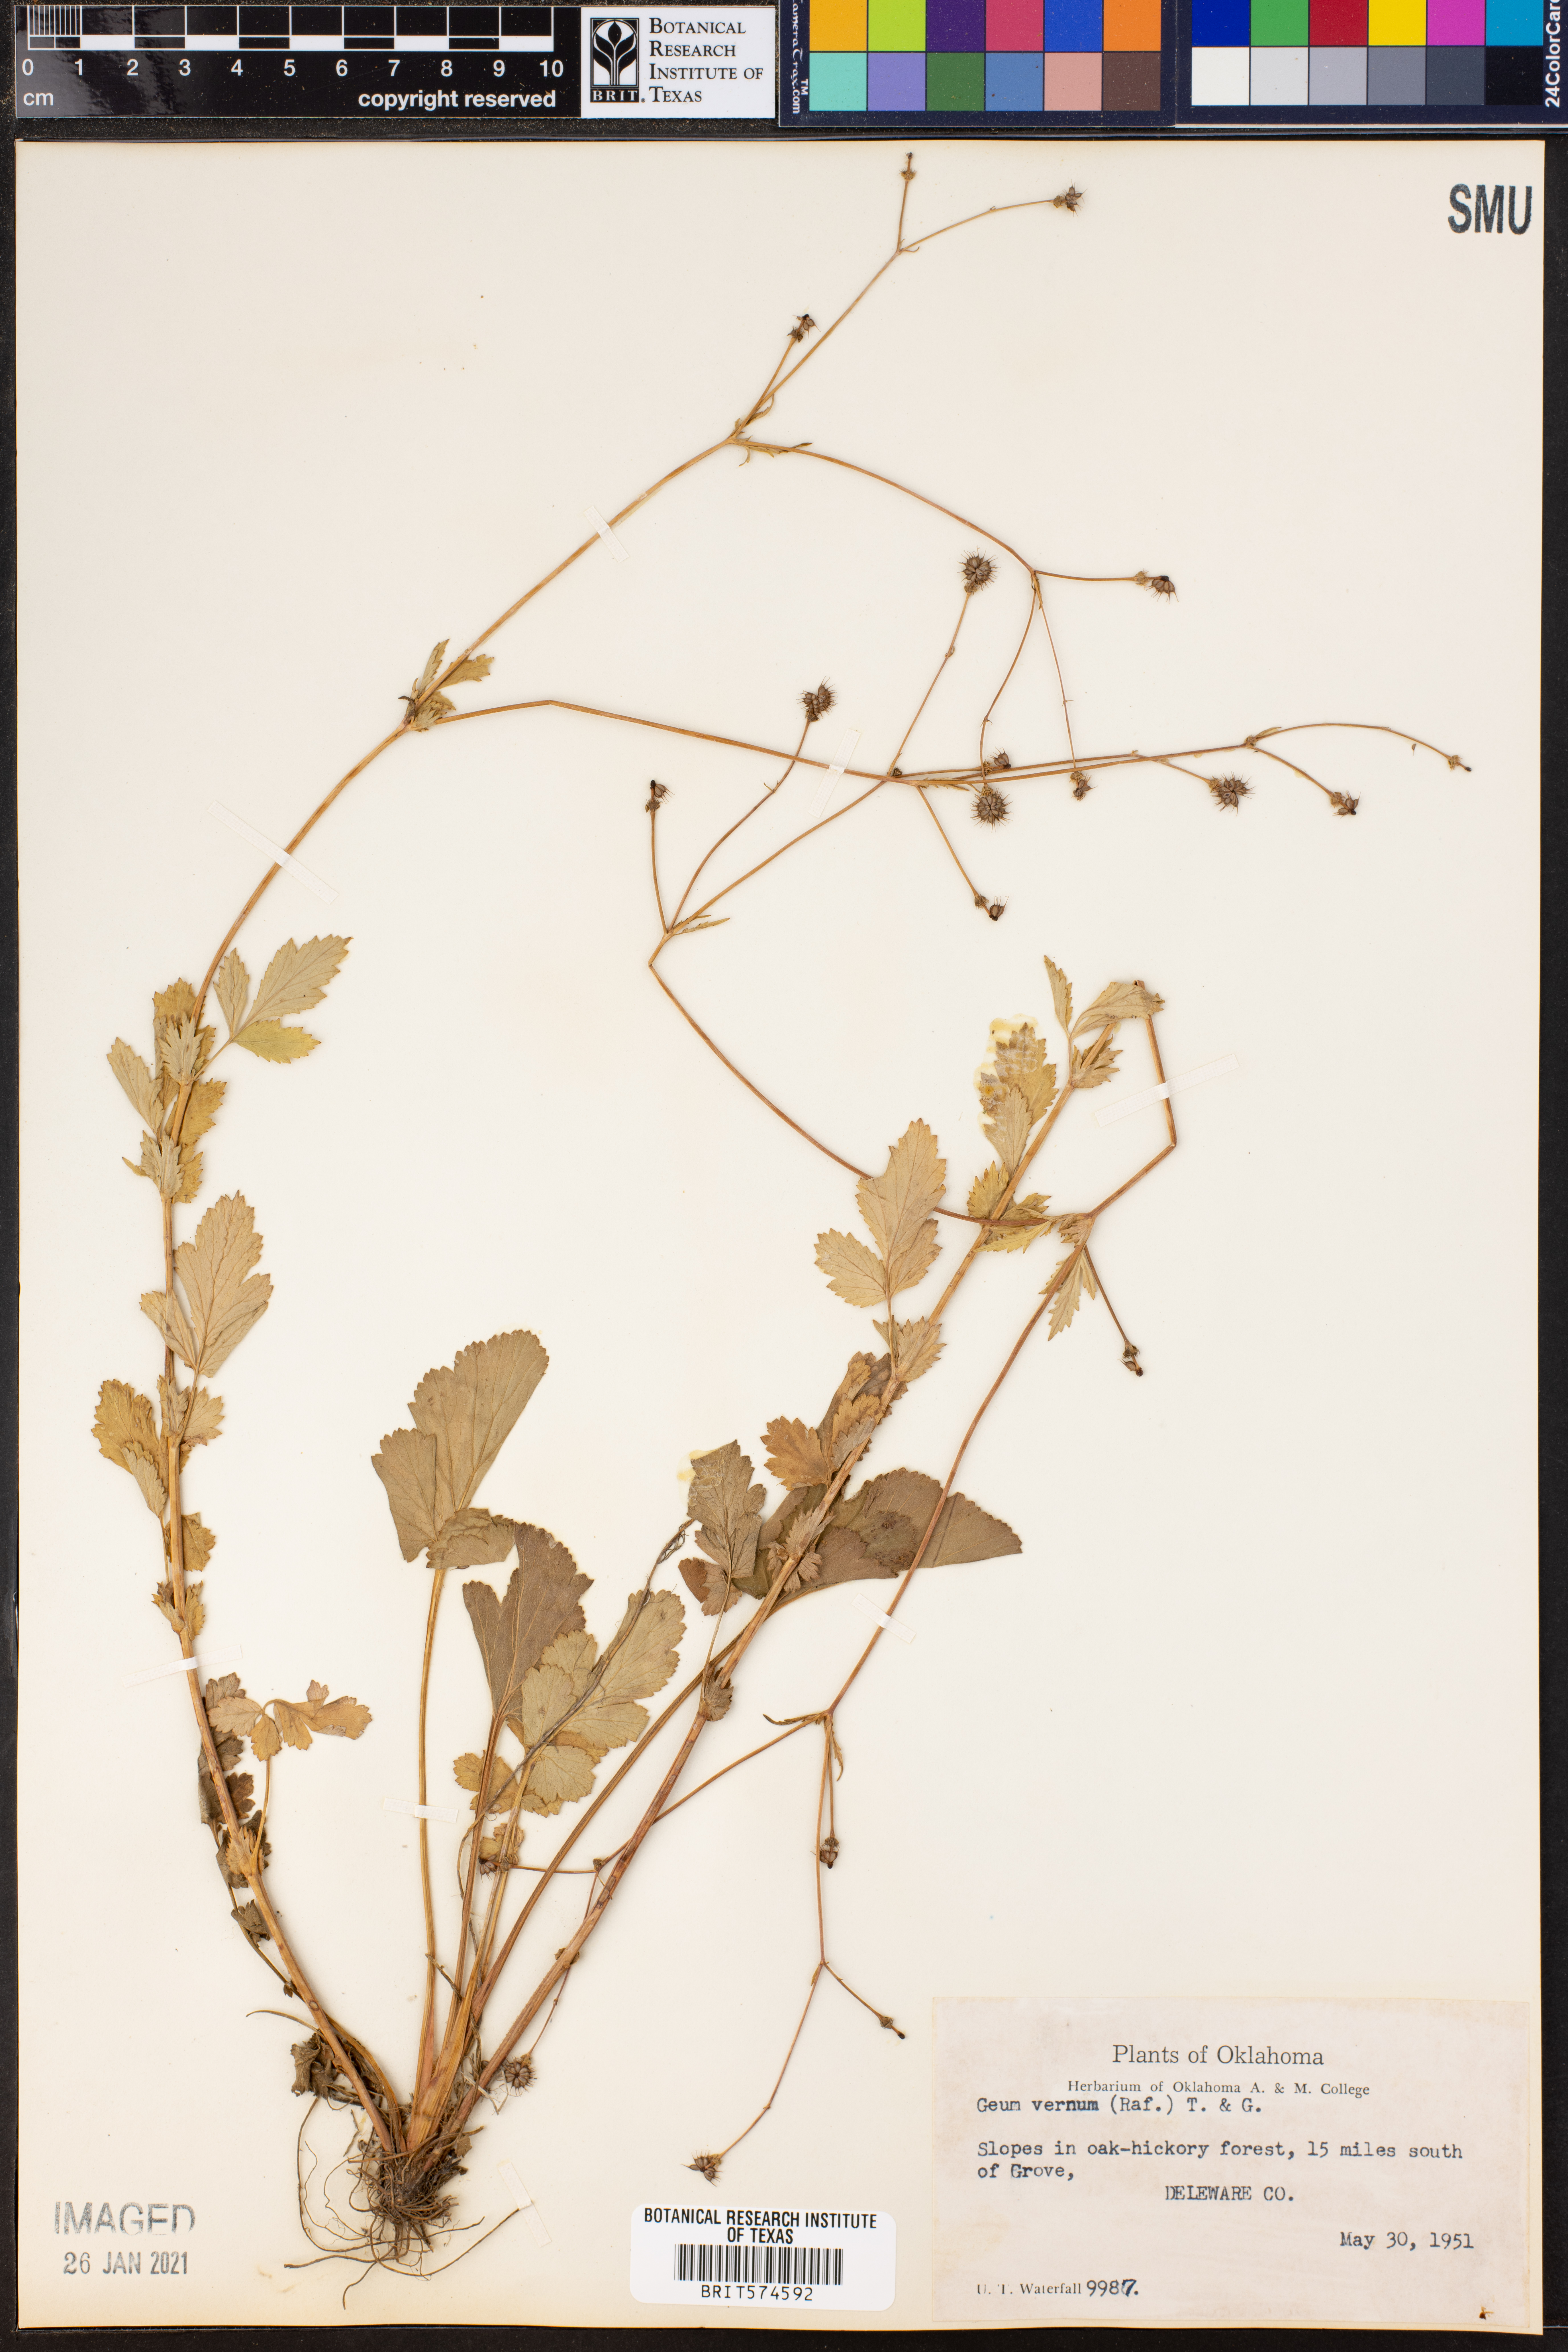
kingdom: Plantae
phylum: Tracheophyta
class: Magnoliopsida
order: Rosales
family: Rosaceae
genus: Geum
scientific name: Geum vernum
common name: Spring avens
